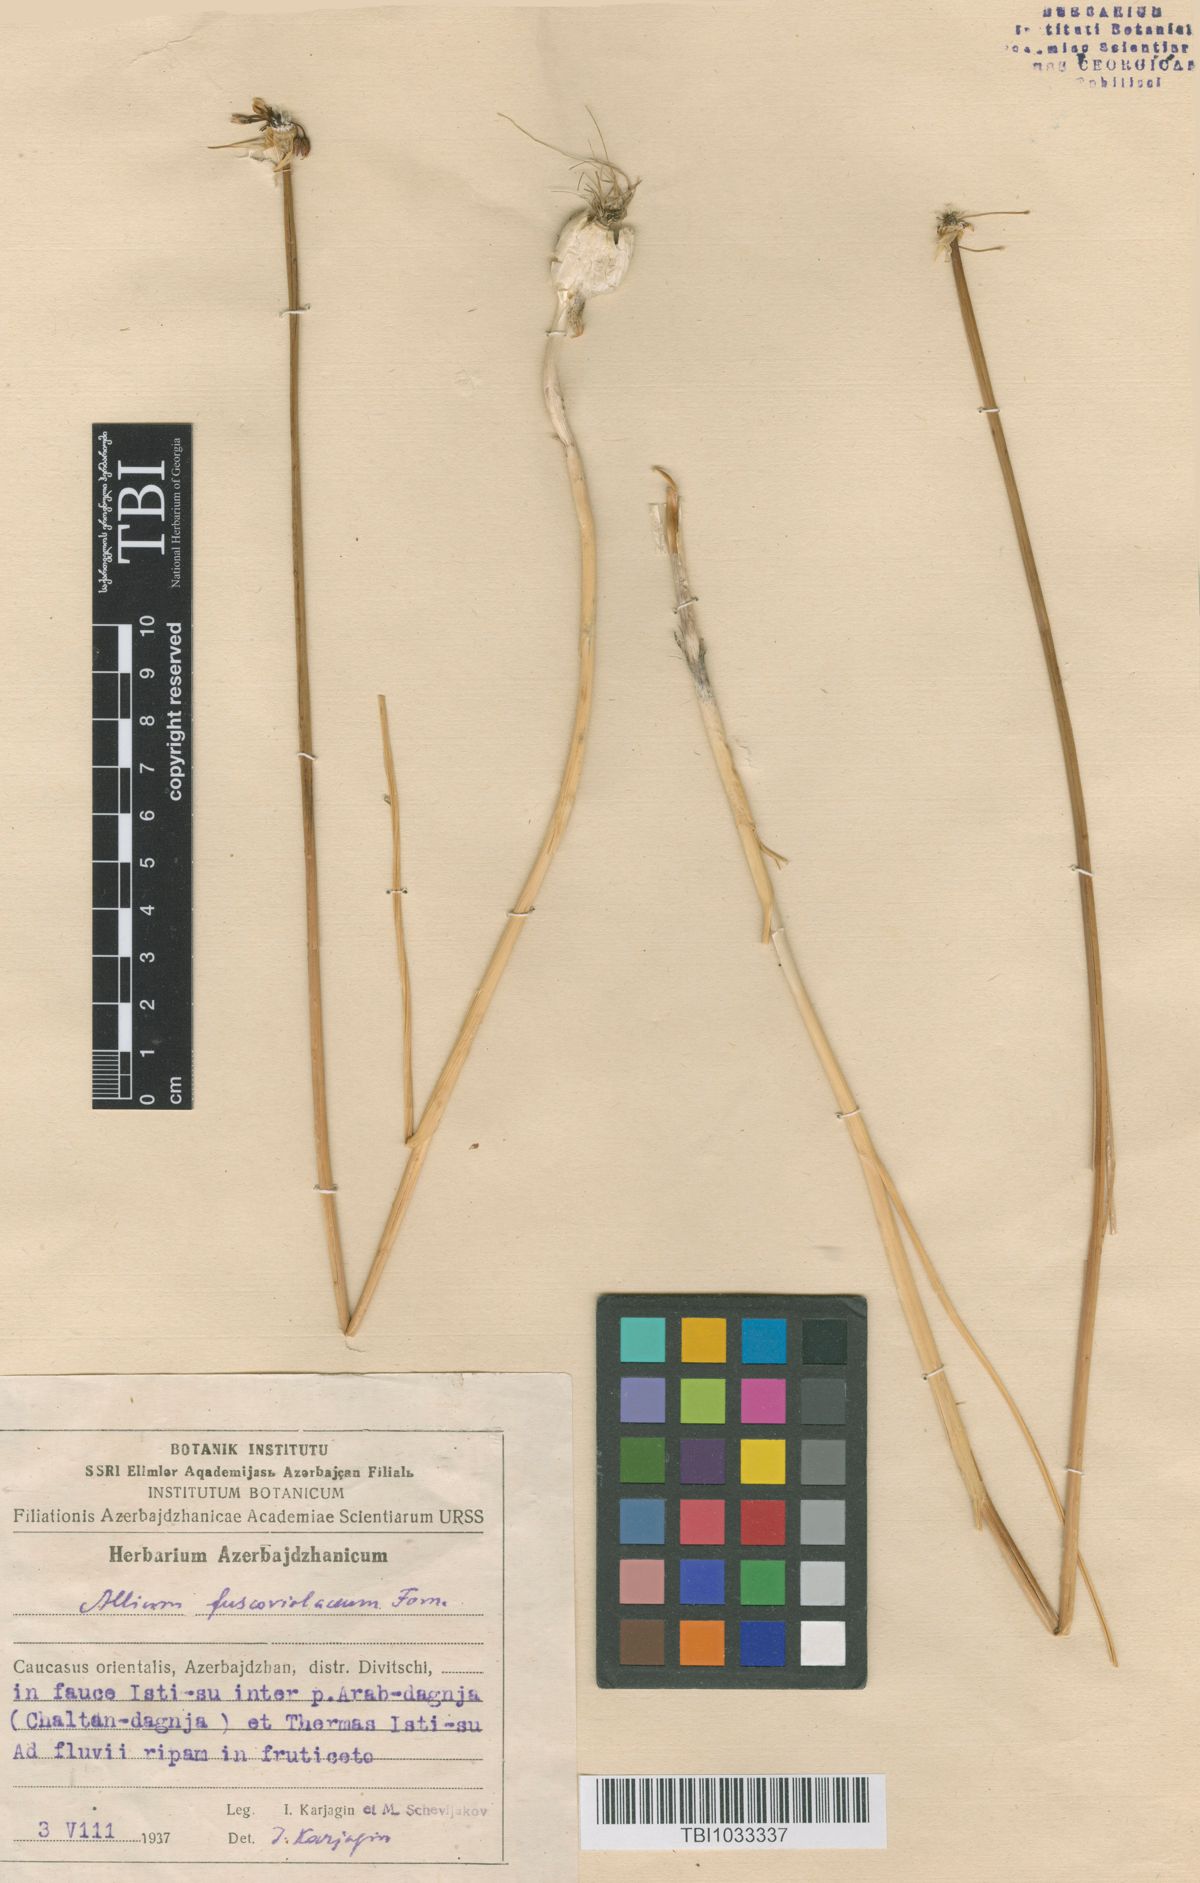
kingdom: Plantae
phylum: Tracheophyta
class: Liliopsida
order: Asparagales
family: Amaryllidaceae
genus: Allium
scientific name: Allium fuscoviolaceum
